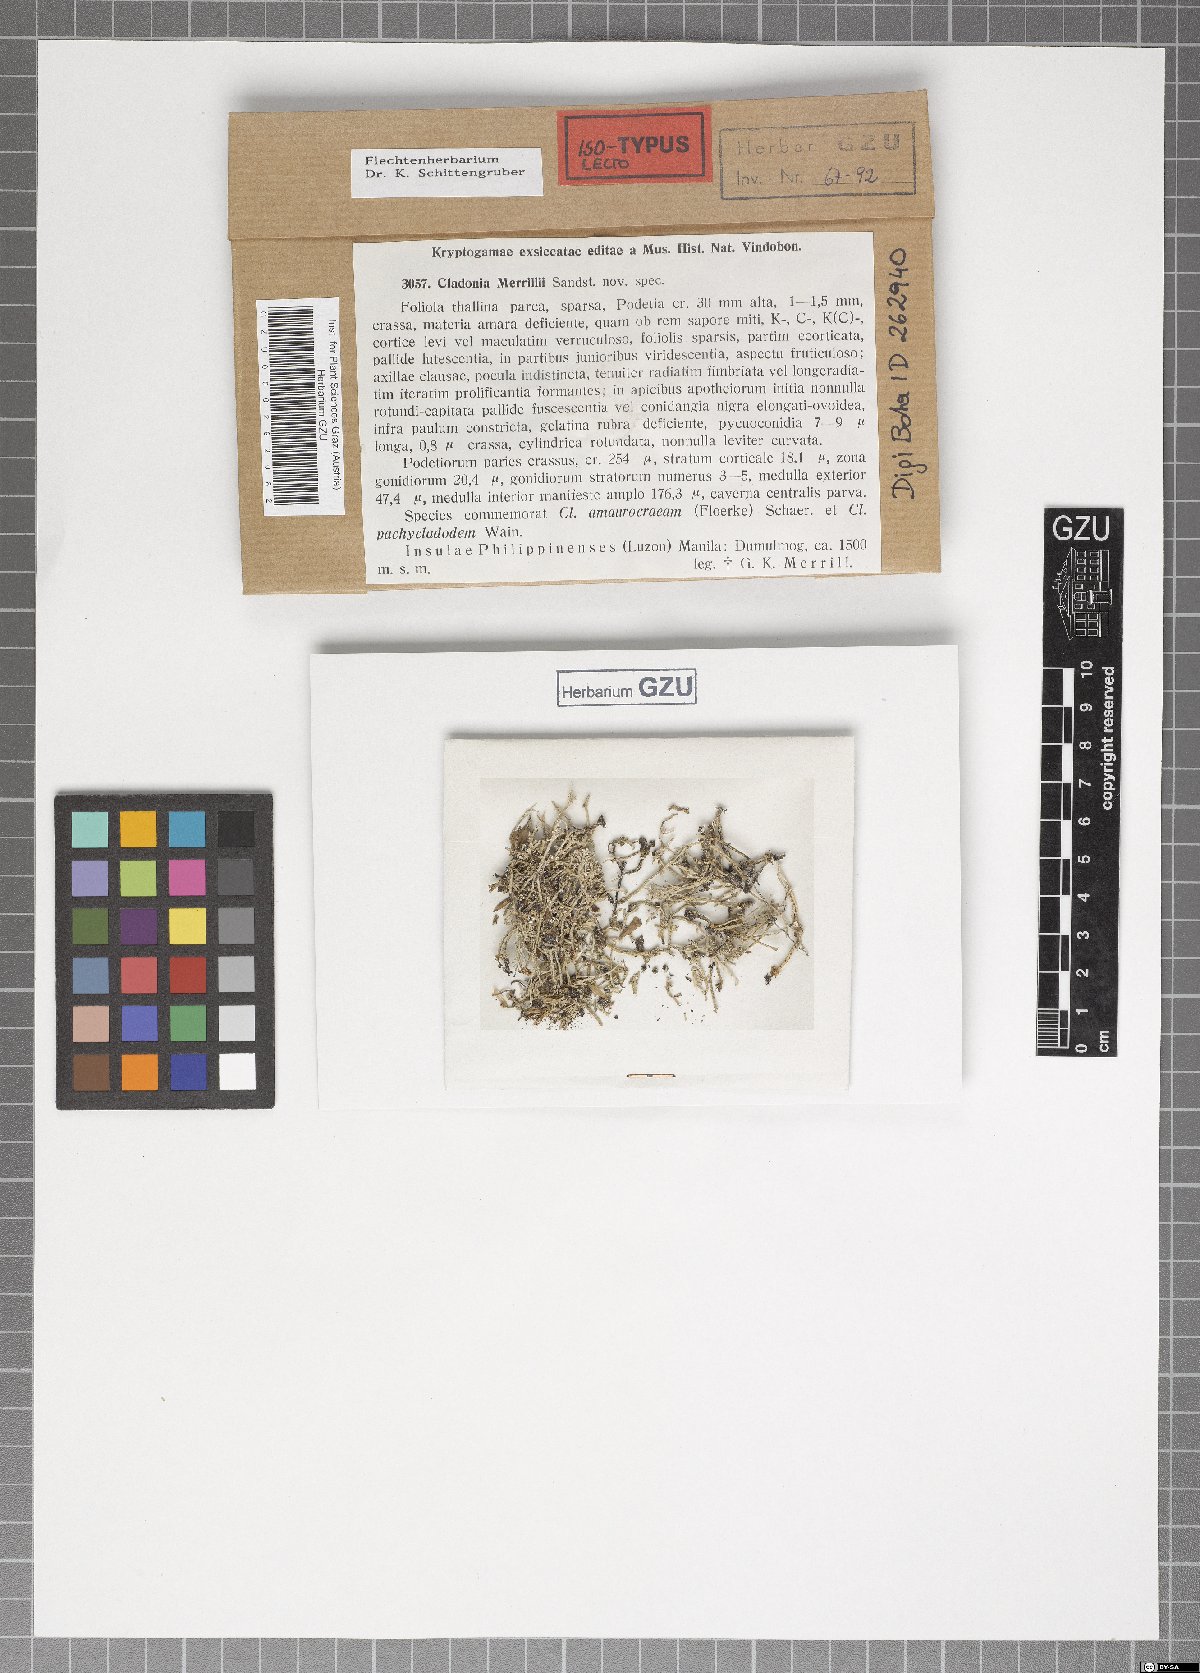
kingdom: Fungi
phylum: Ascomycota
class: Lecanoromycetes
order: Lecanorales
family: Cladoniaceae
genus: Cladonia
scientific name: Cladonia fruticulosa
